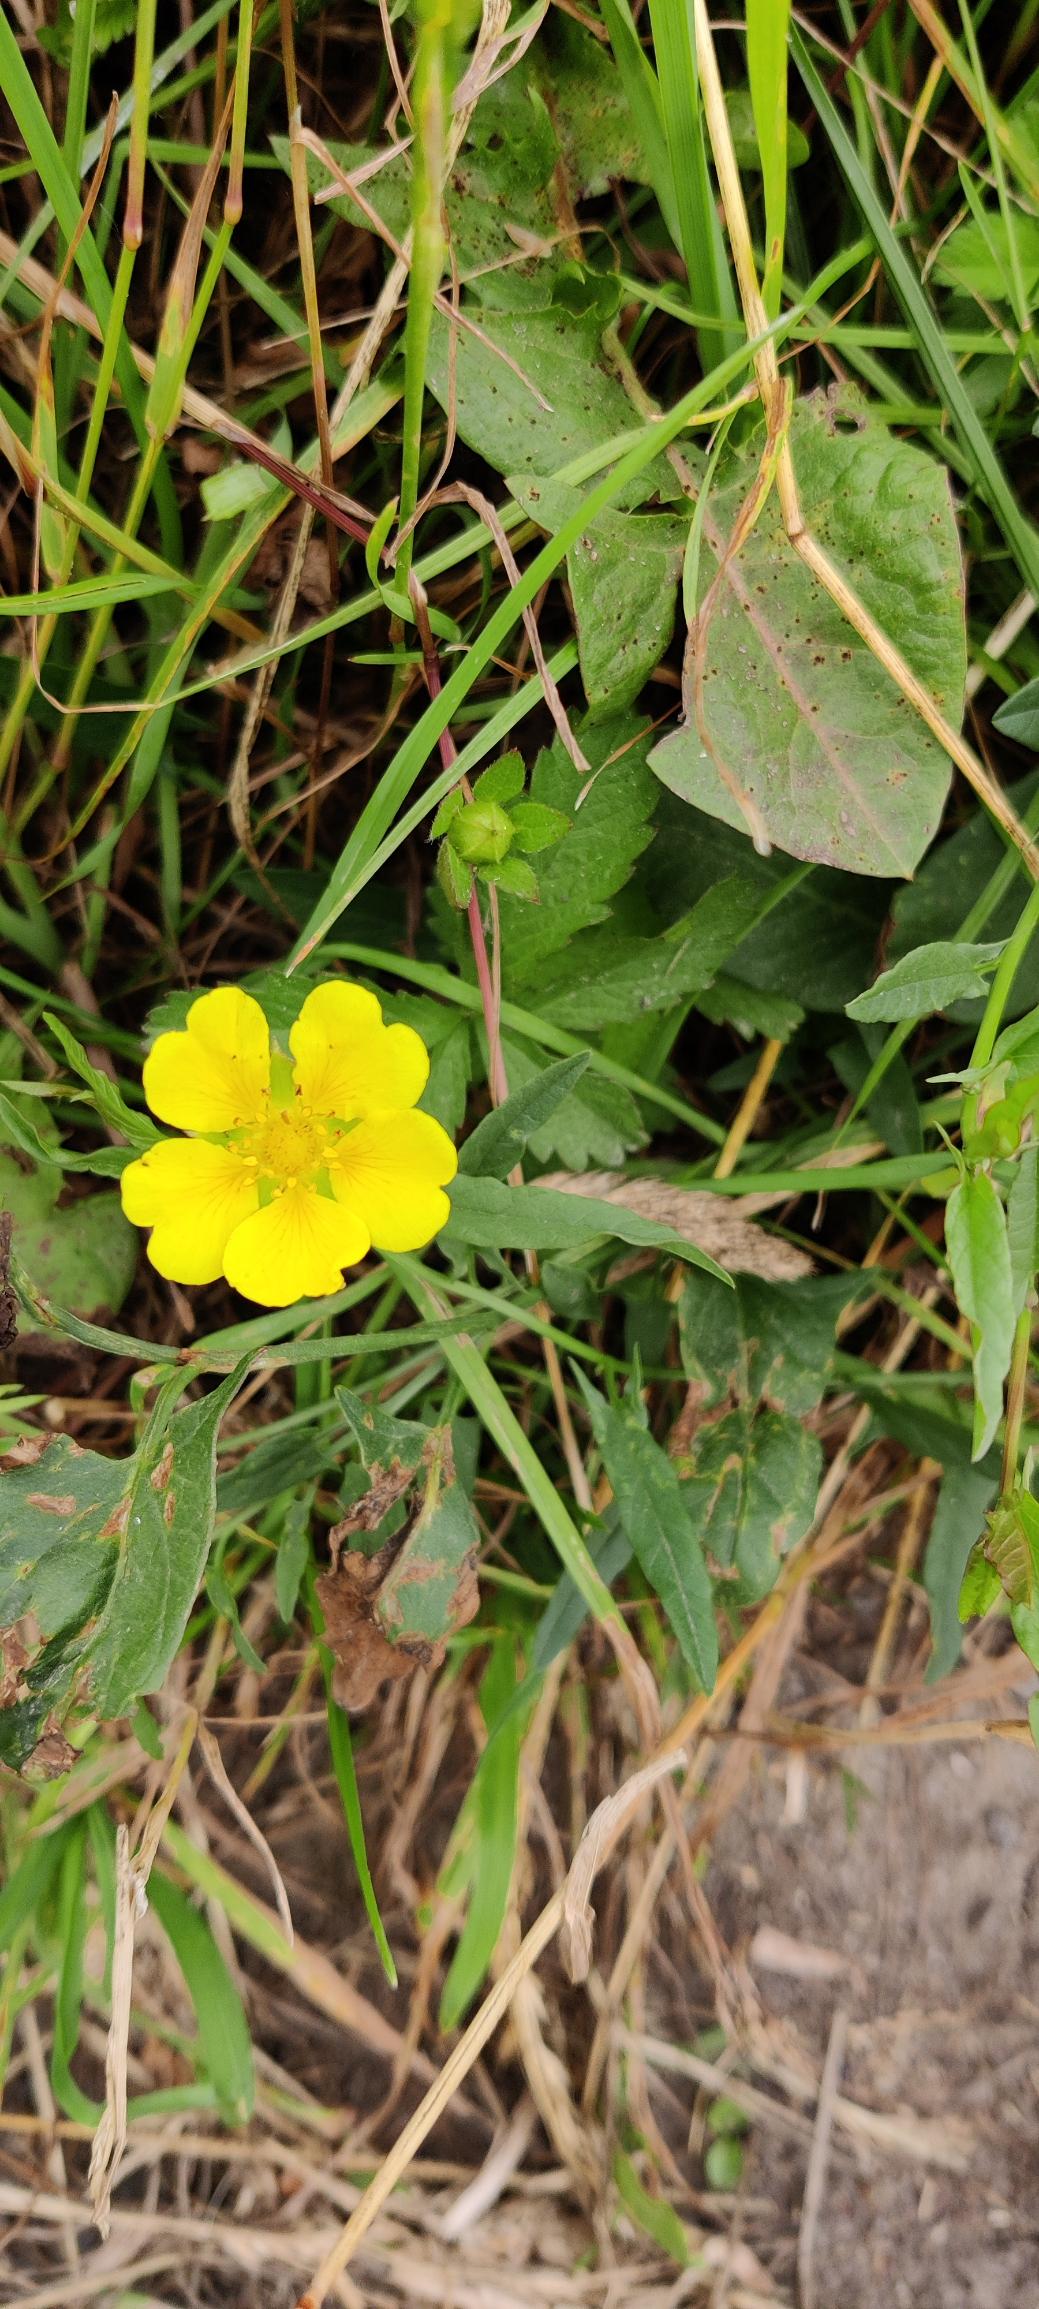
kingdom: Plantae
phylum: Tracheophyta
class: Magnoliopsida
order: Rosales
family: Rosaceae
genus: Potentilla
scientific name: Potentilla reptans
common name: Krybende potentil
